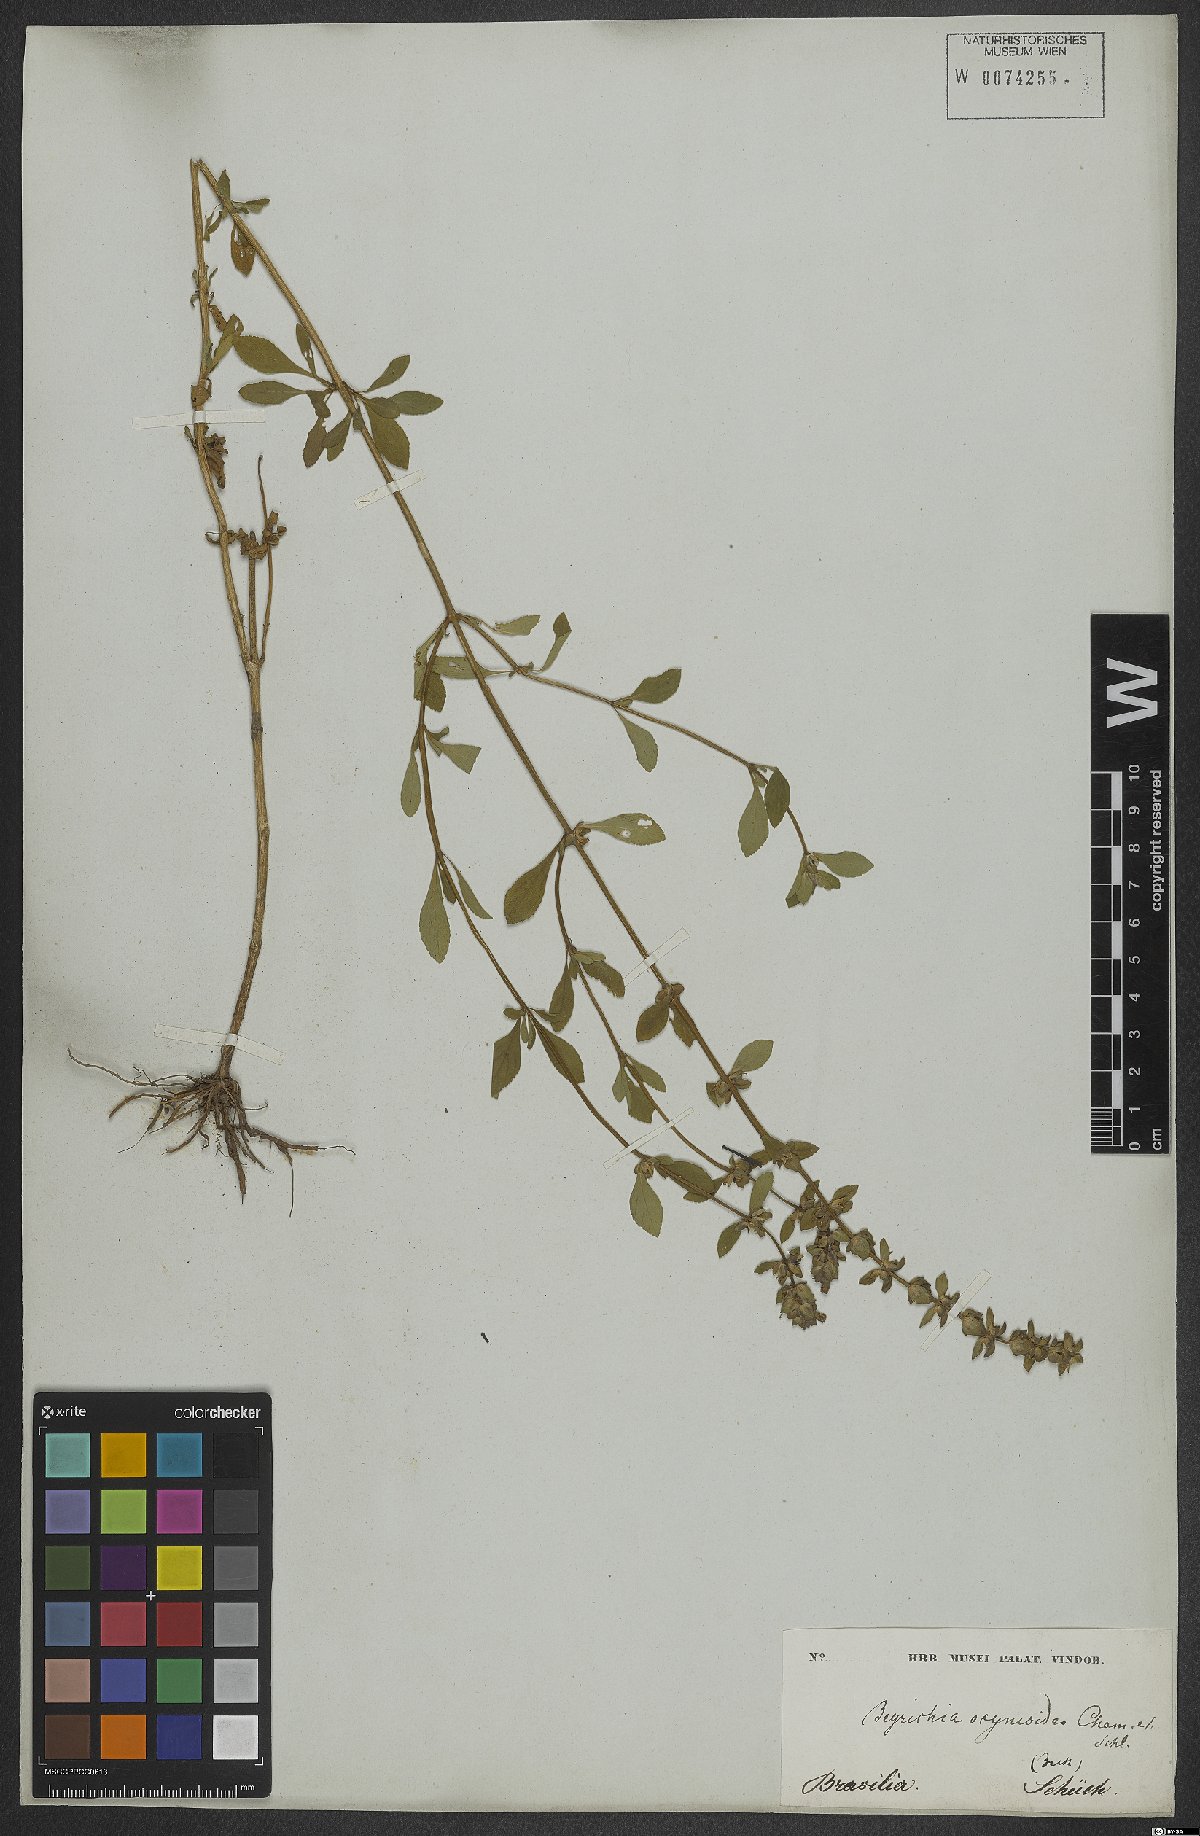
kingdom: Plantae
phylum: Tracheophyta
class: Magnoliopsida
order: Lamiales
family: Plantaginaceae
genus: Matourea
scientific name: Matourea ocymoides
